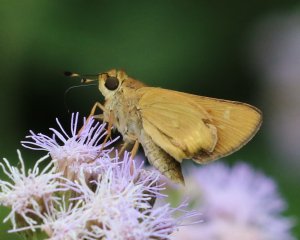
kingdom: Animalia
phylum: Arthropoda
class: Insecta
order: Lepidoptera
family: Hesperiidae
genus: Mellana
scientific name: Mellana eulogius
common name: Common Mellana
